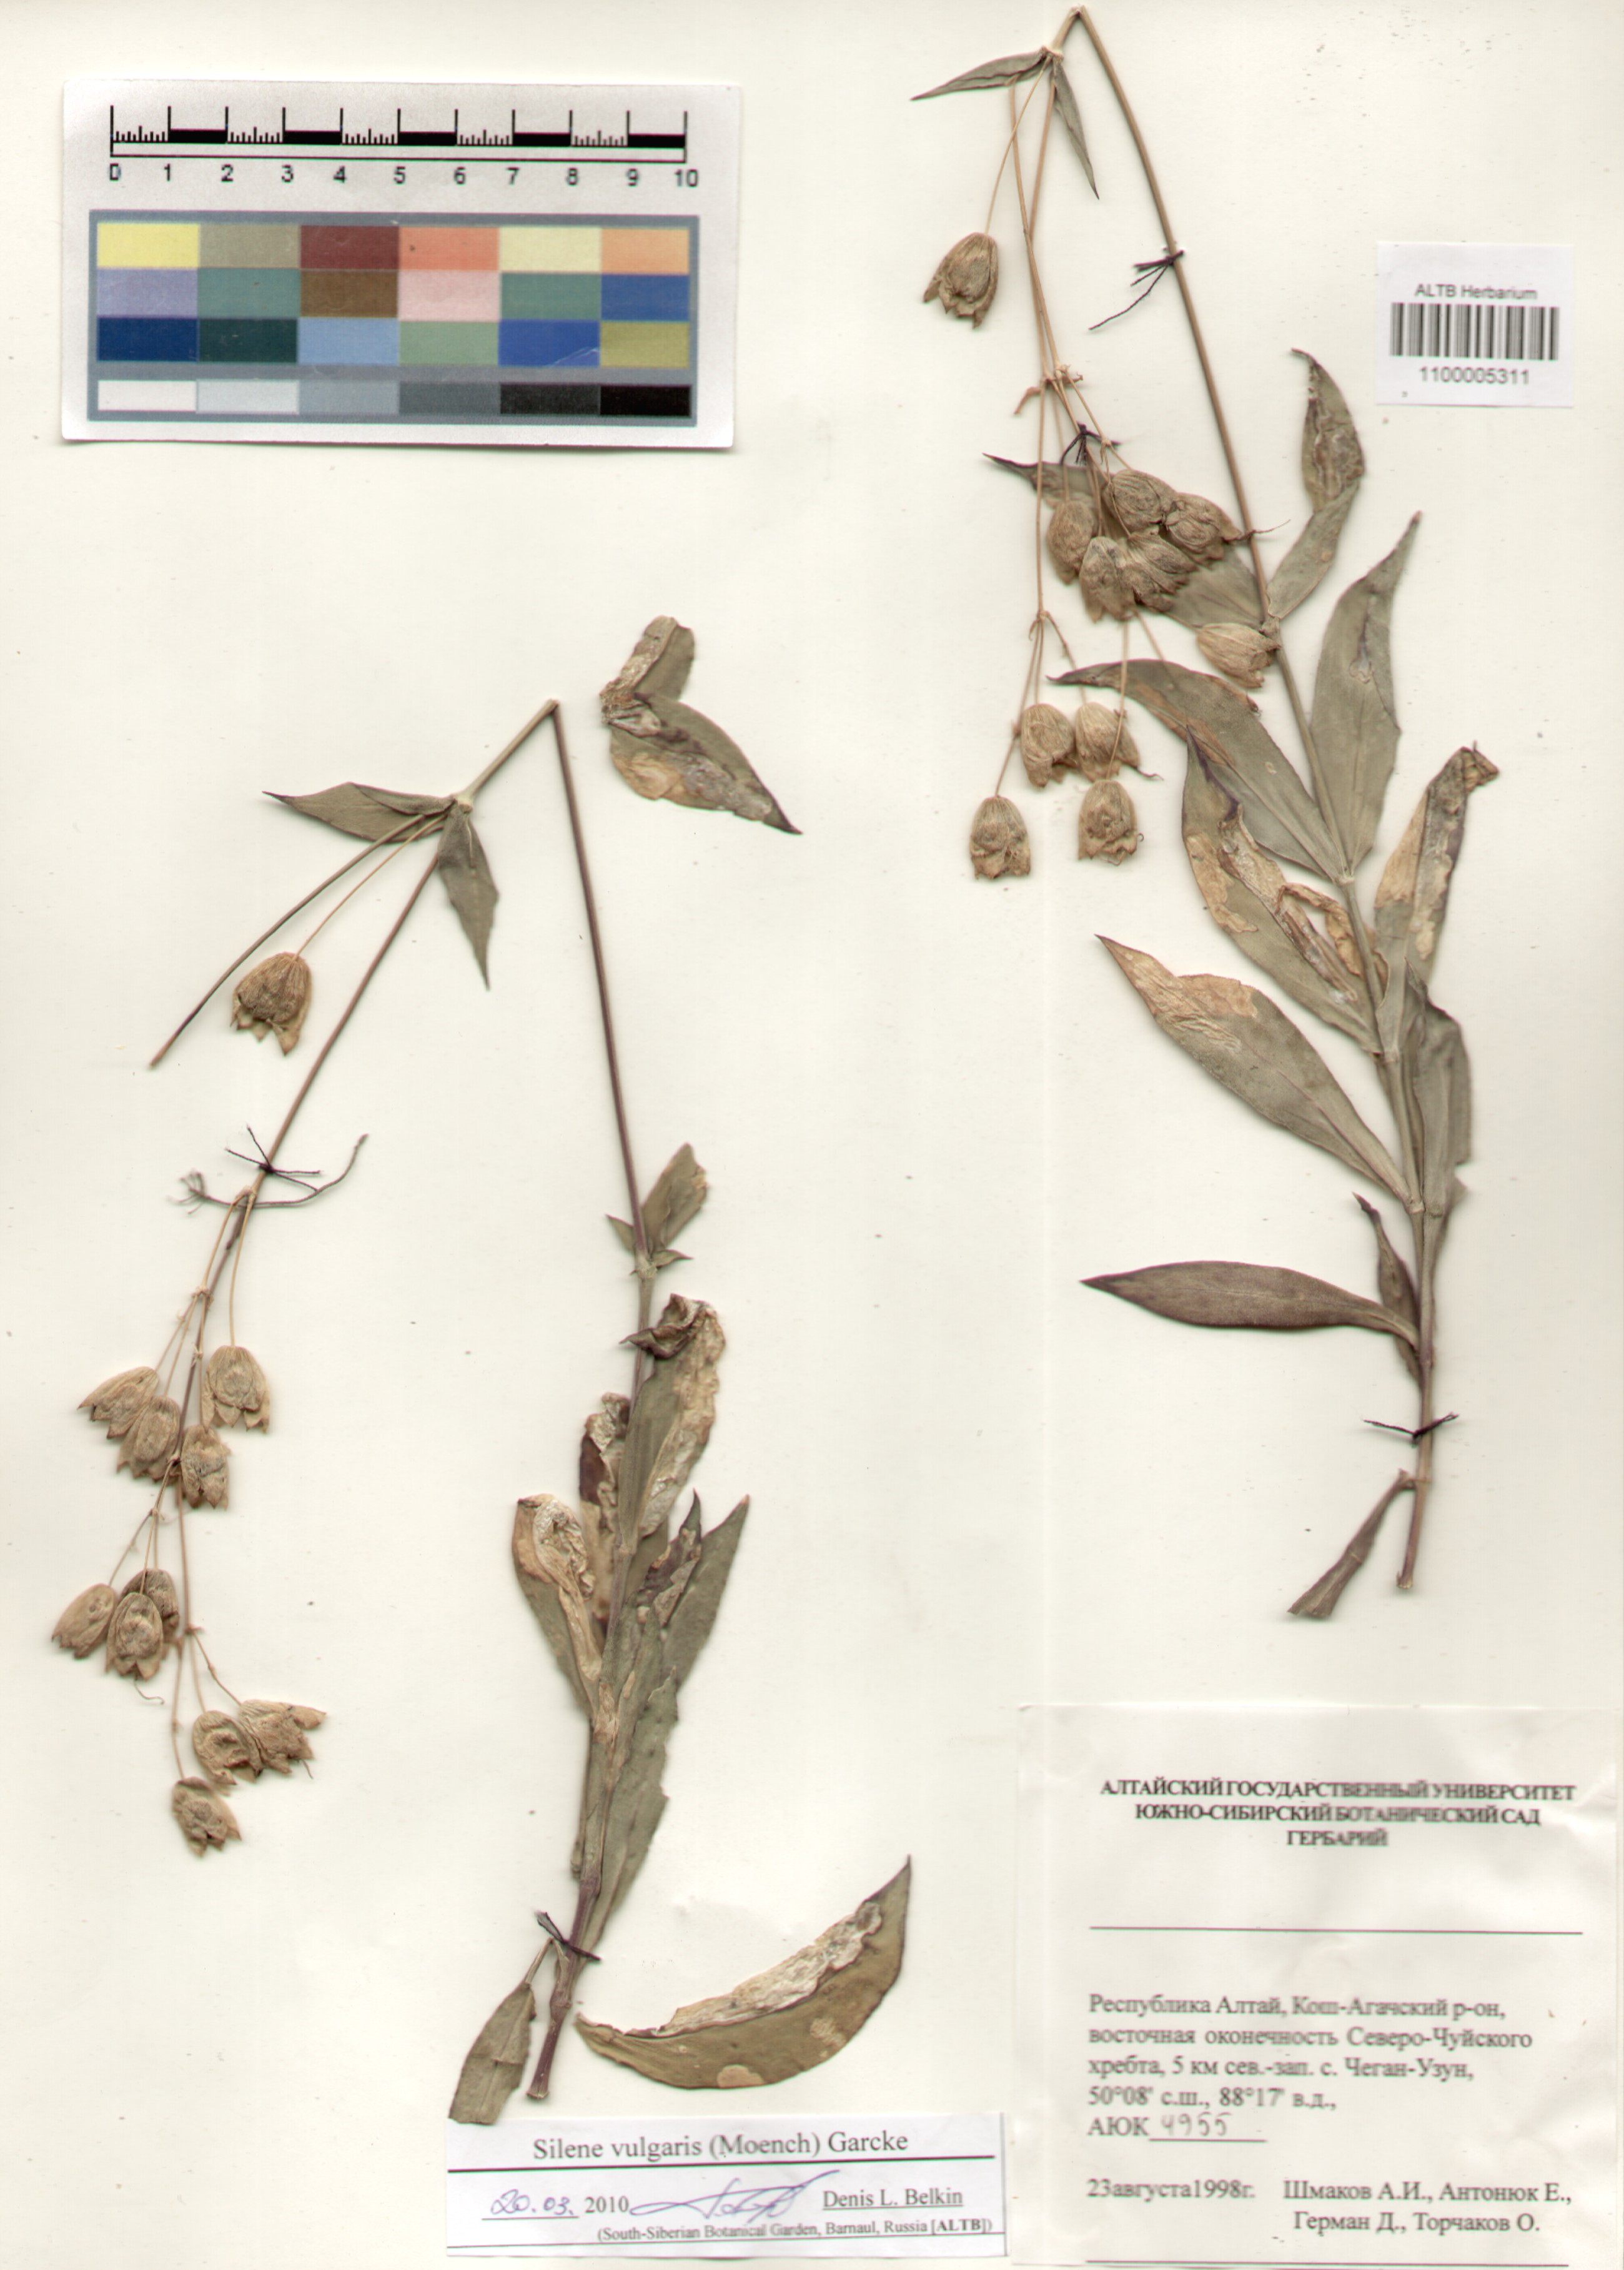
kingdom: Plantae
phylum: Tracheophyta
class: Magnoliopsida
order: Caryophyllales
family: Caryophyllaceae
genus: Silene
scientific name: Silene vulgaris
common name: Bladder campion
